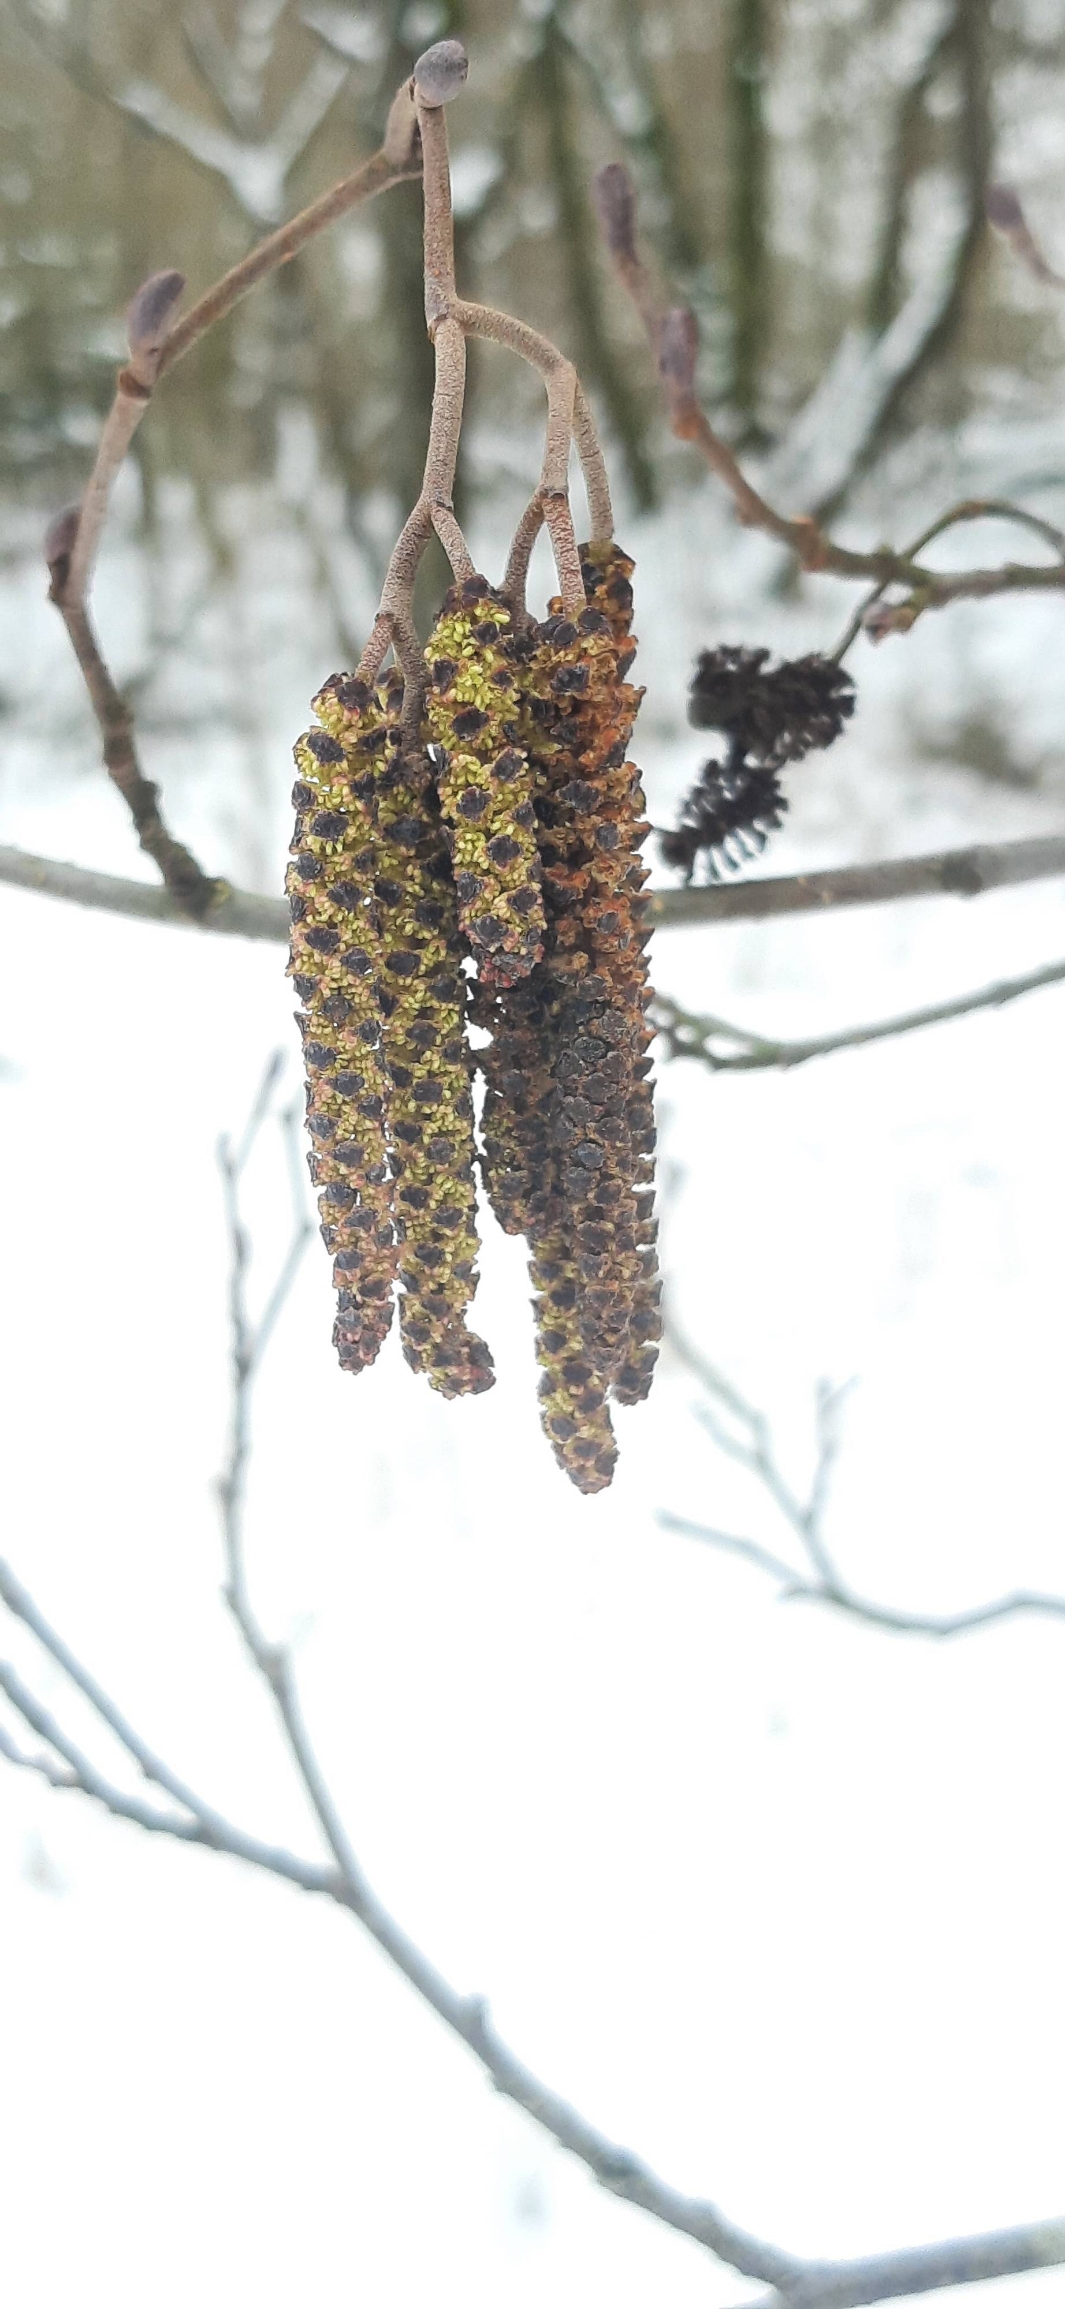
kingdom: Plantae
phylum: Tracheophyta
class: Magnoliopsida
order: Fagales
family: Betulaceae
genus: Alnus
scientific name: Alnus glutinosa
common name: Rød-el
